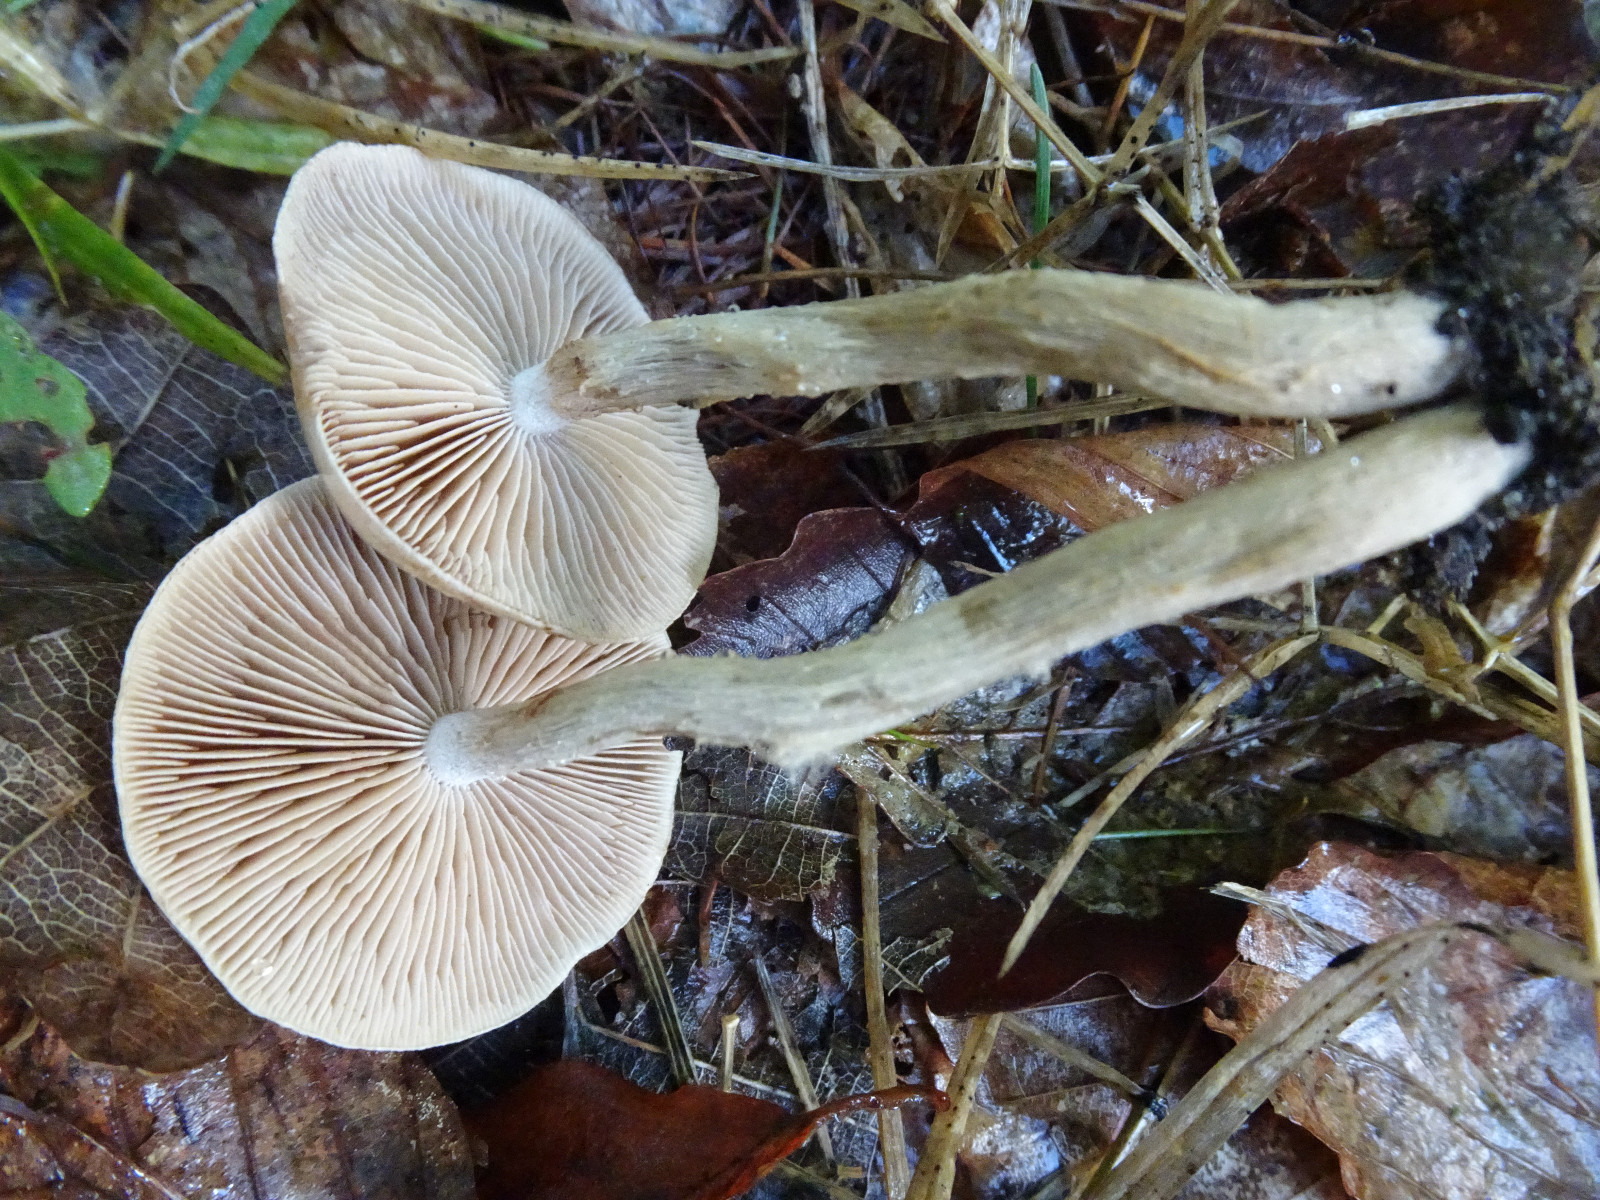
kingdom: Fungi
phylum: Basidiomycota
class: Agaricomycetes
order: Agaricales
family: Hymenogastraceae
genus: Hebeloma
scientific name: Hebeloma mesophaeum
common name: lerbrun tåreblad
